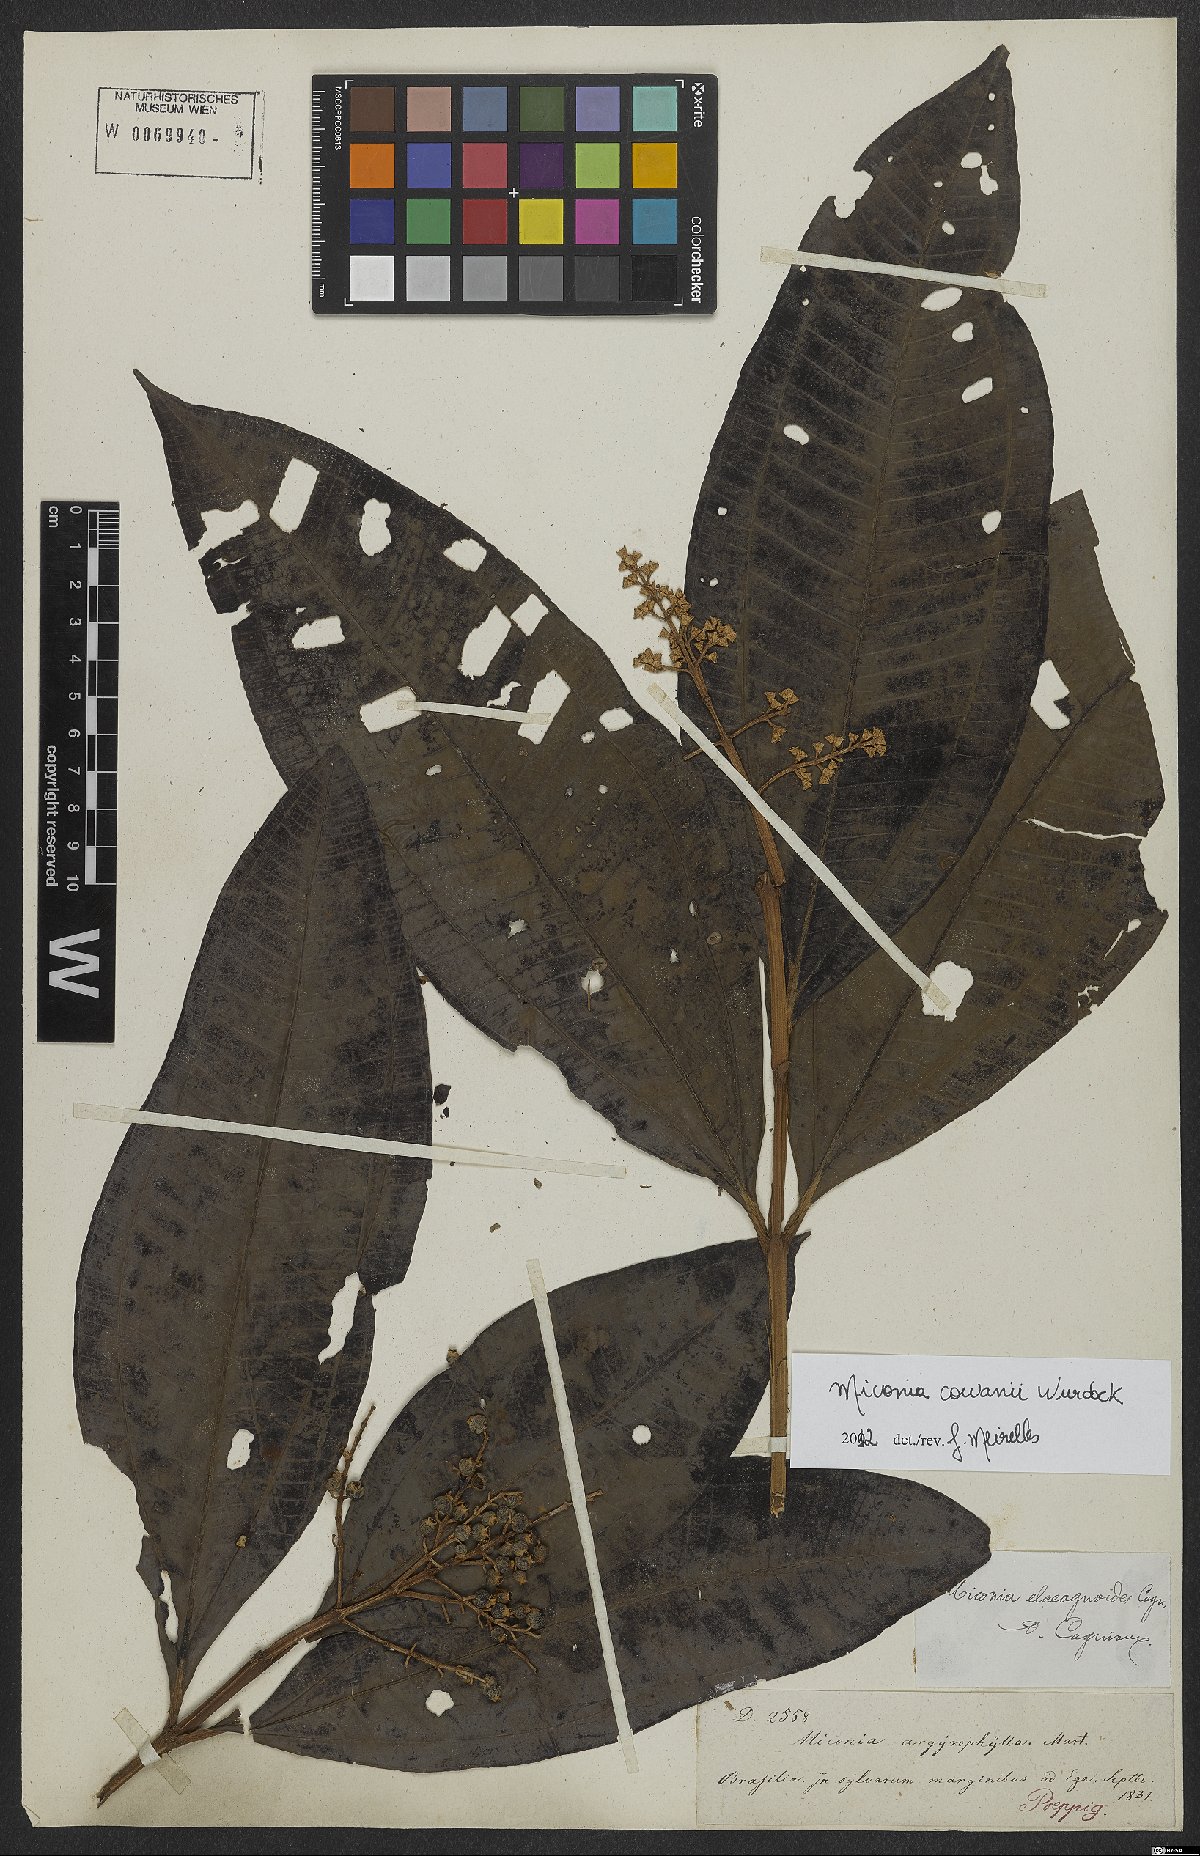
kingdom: Plantae
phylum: Tracheophyta
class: Magnoliopsida
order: Myrtales
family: Melastomataceae
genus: Miconia
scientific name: Miconia cowanii
